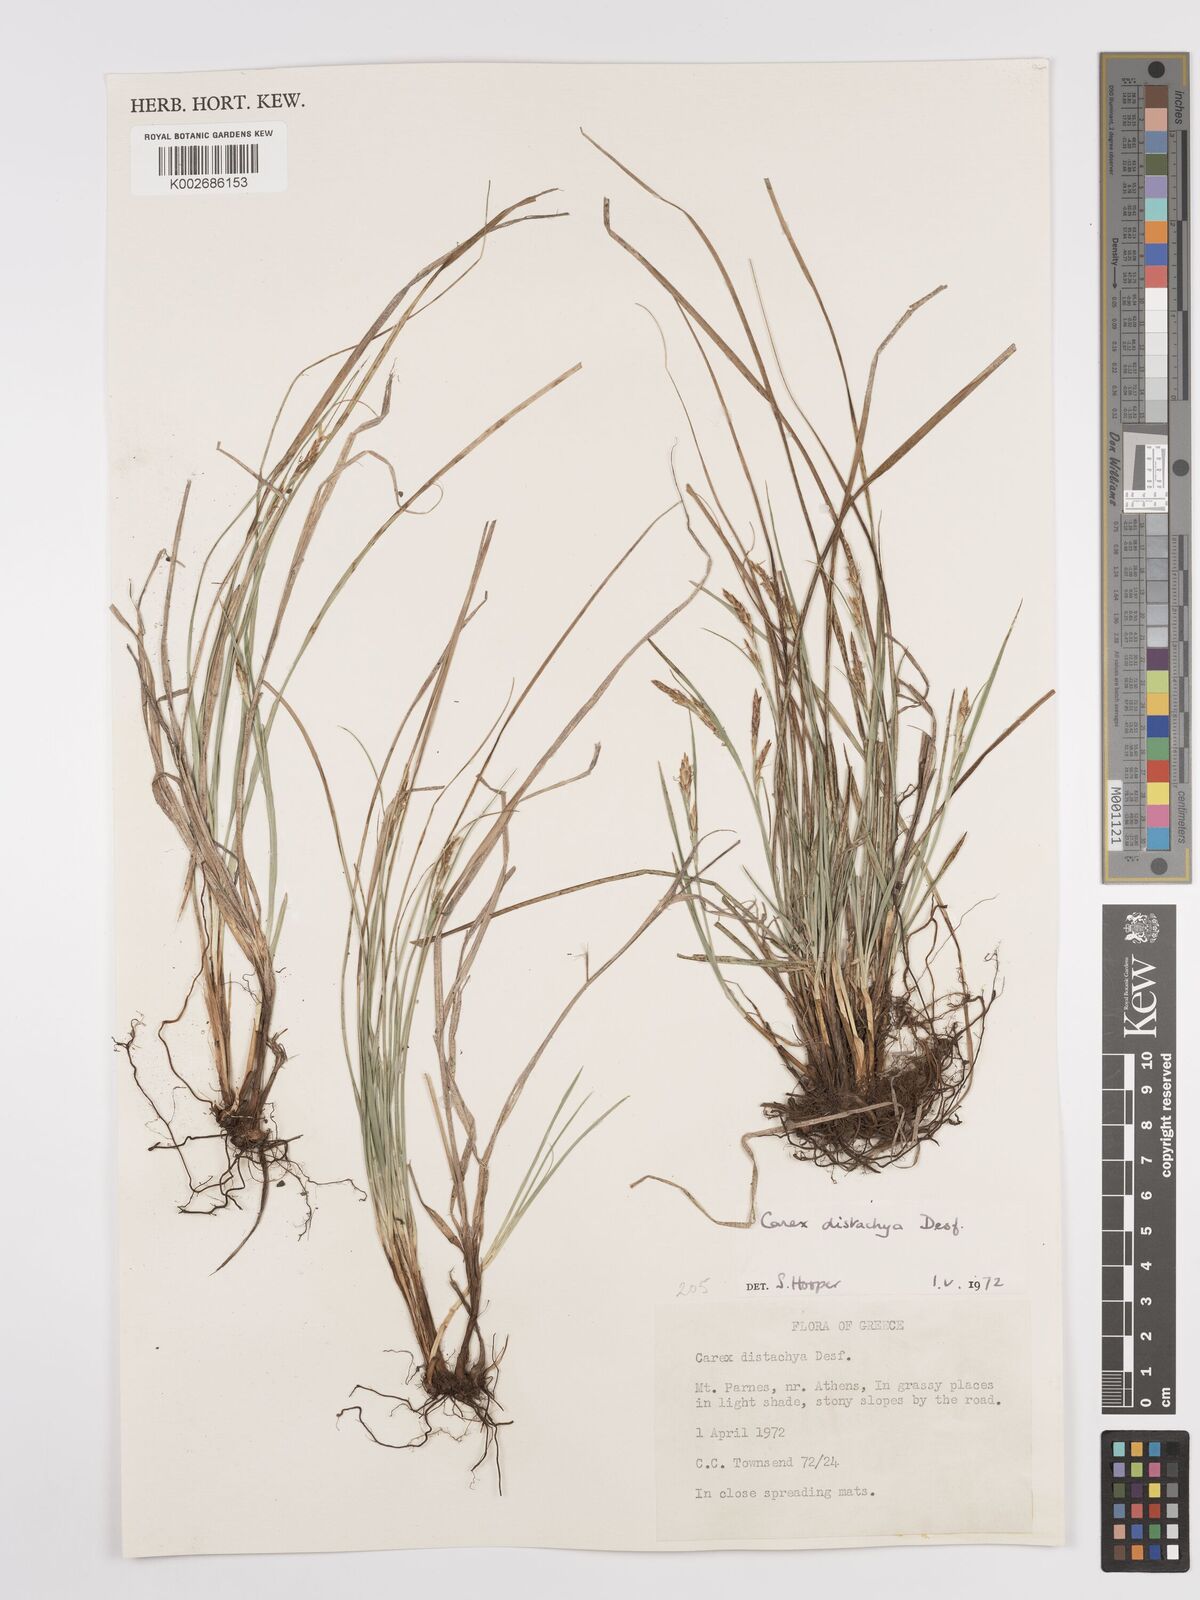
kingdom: Plantae
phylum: Tracheophyta
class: Liliopsida
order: Poales
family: Cyperaceae
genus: Carex
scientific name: Carex distachya
